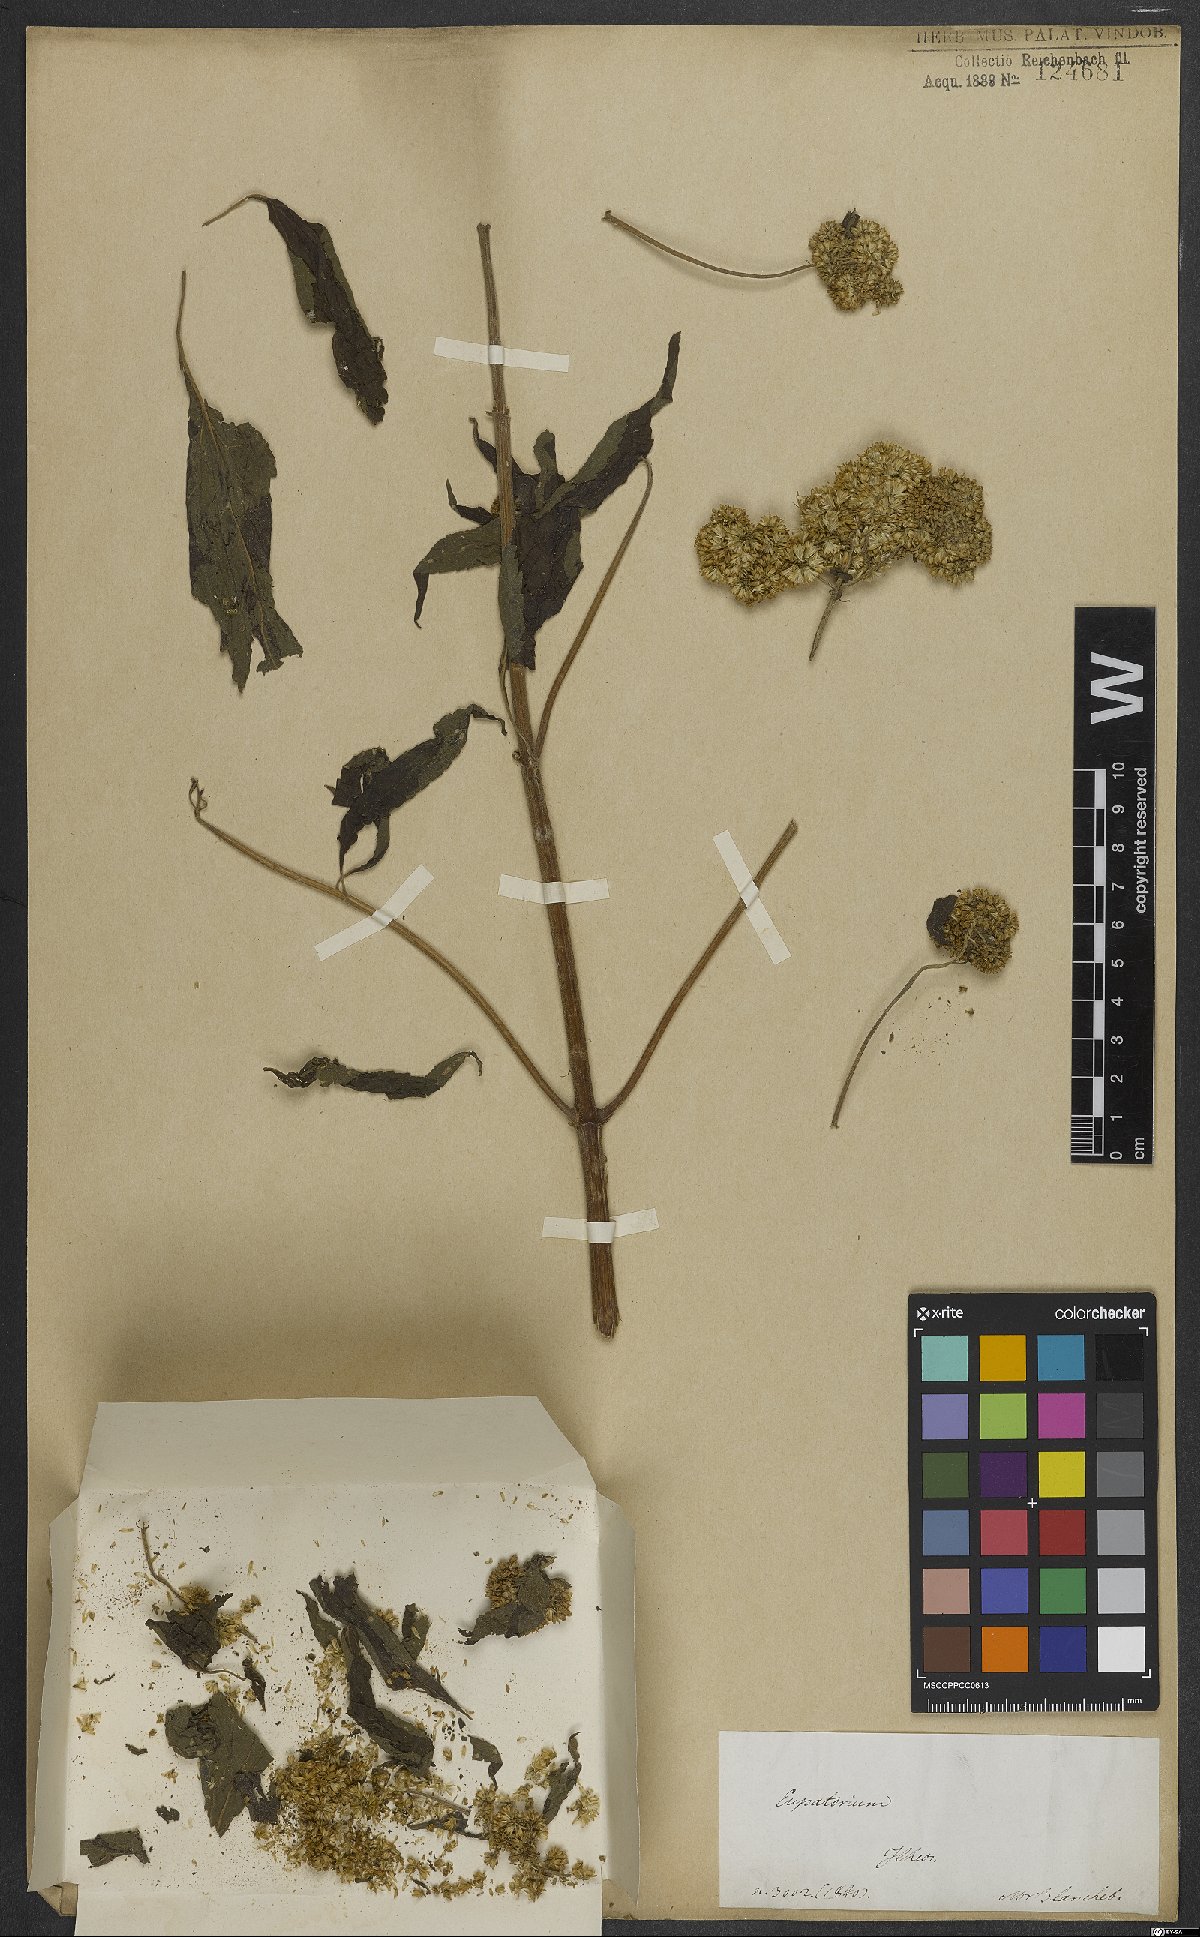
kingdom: Plantae
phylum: Tracheophyta
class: Magnoliopsida
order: Asterales
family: Asteraceae
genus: Eupatorium
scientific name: Eupatorium
